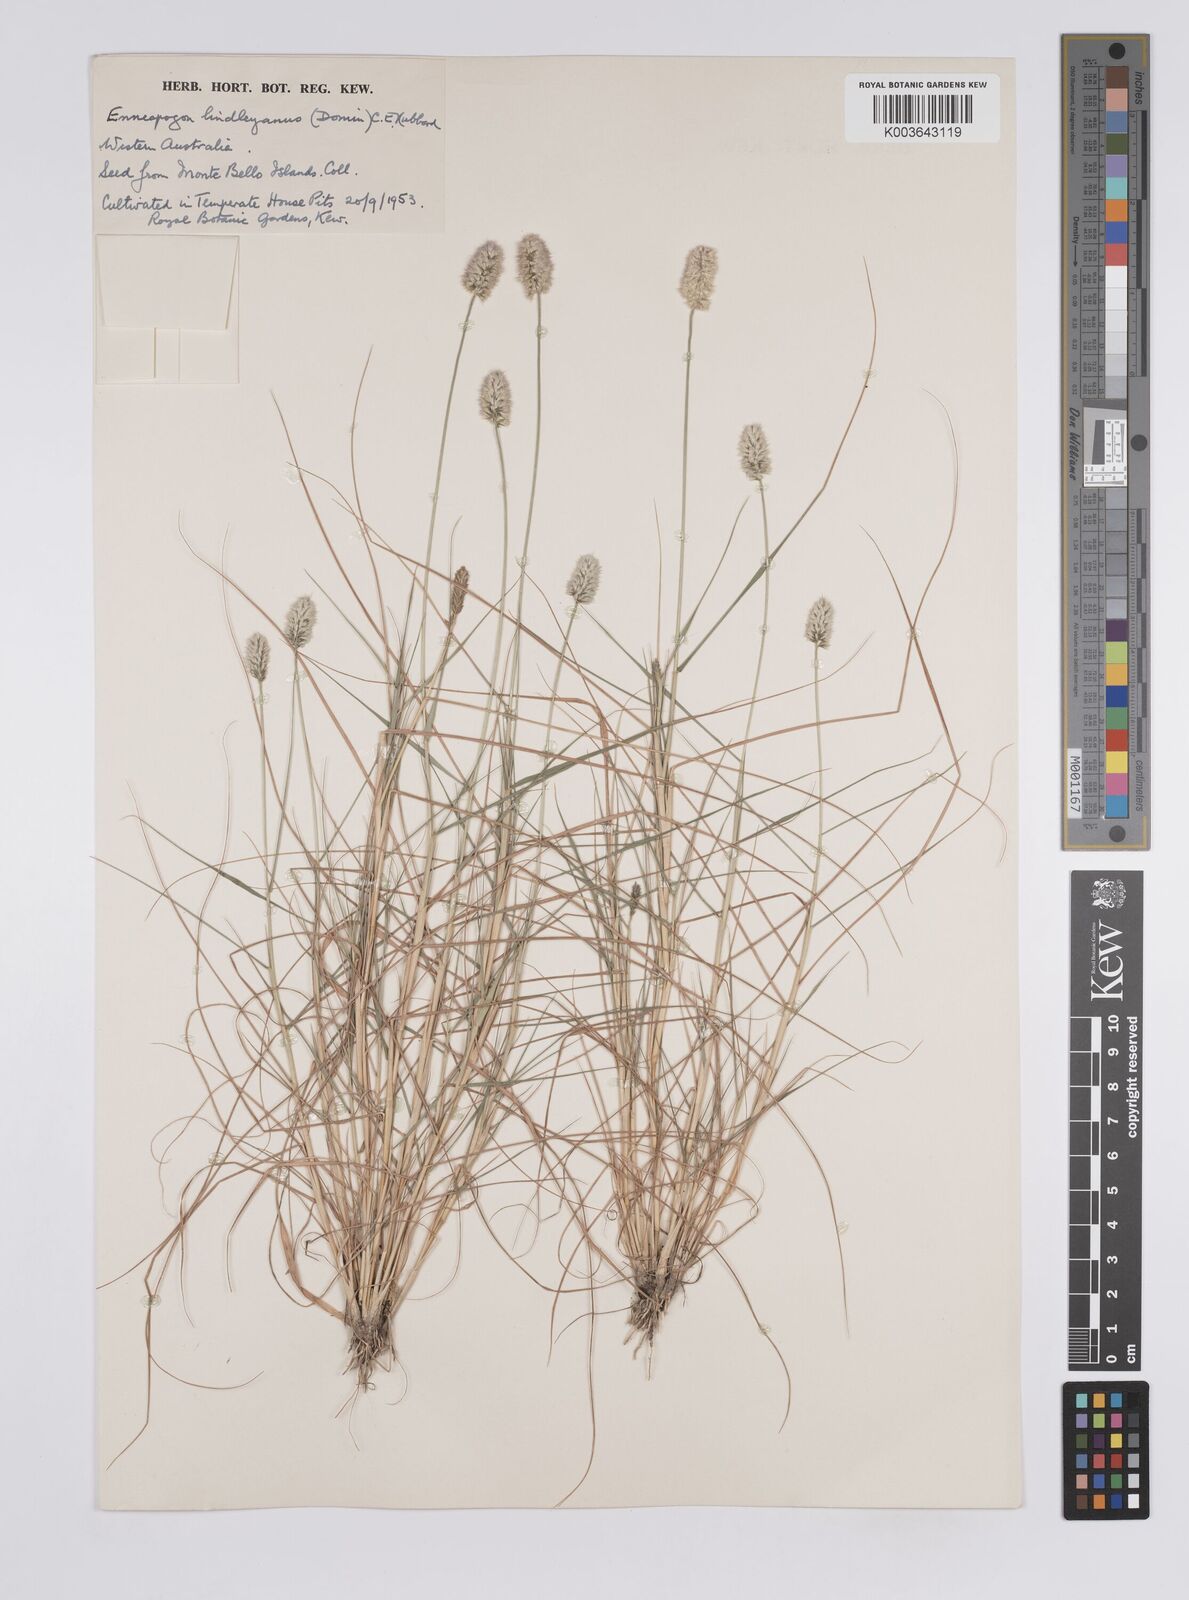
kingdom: Plantae
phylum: Tracheophyta
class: Liliopsida
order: Poales
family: Poaceae
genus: Enneapogon
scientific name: Enneapogon lindleyanus
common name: Conetop nineawn
